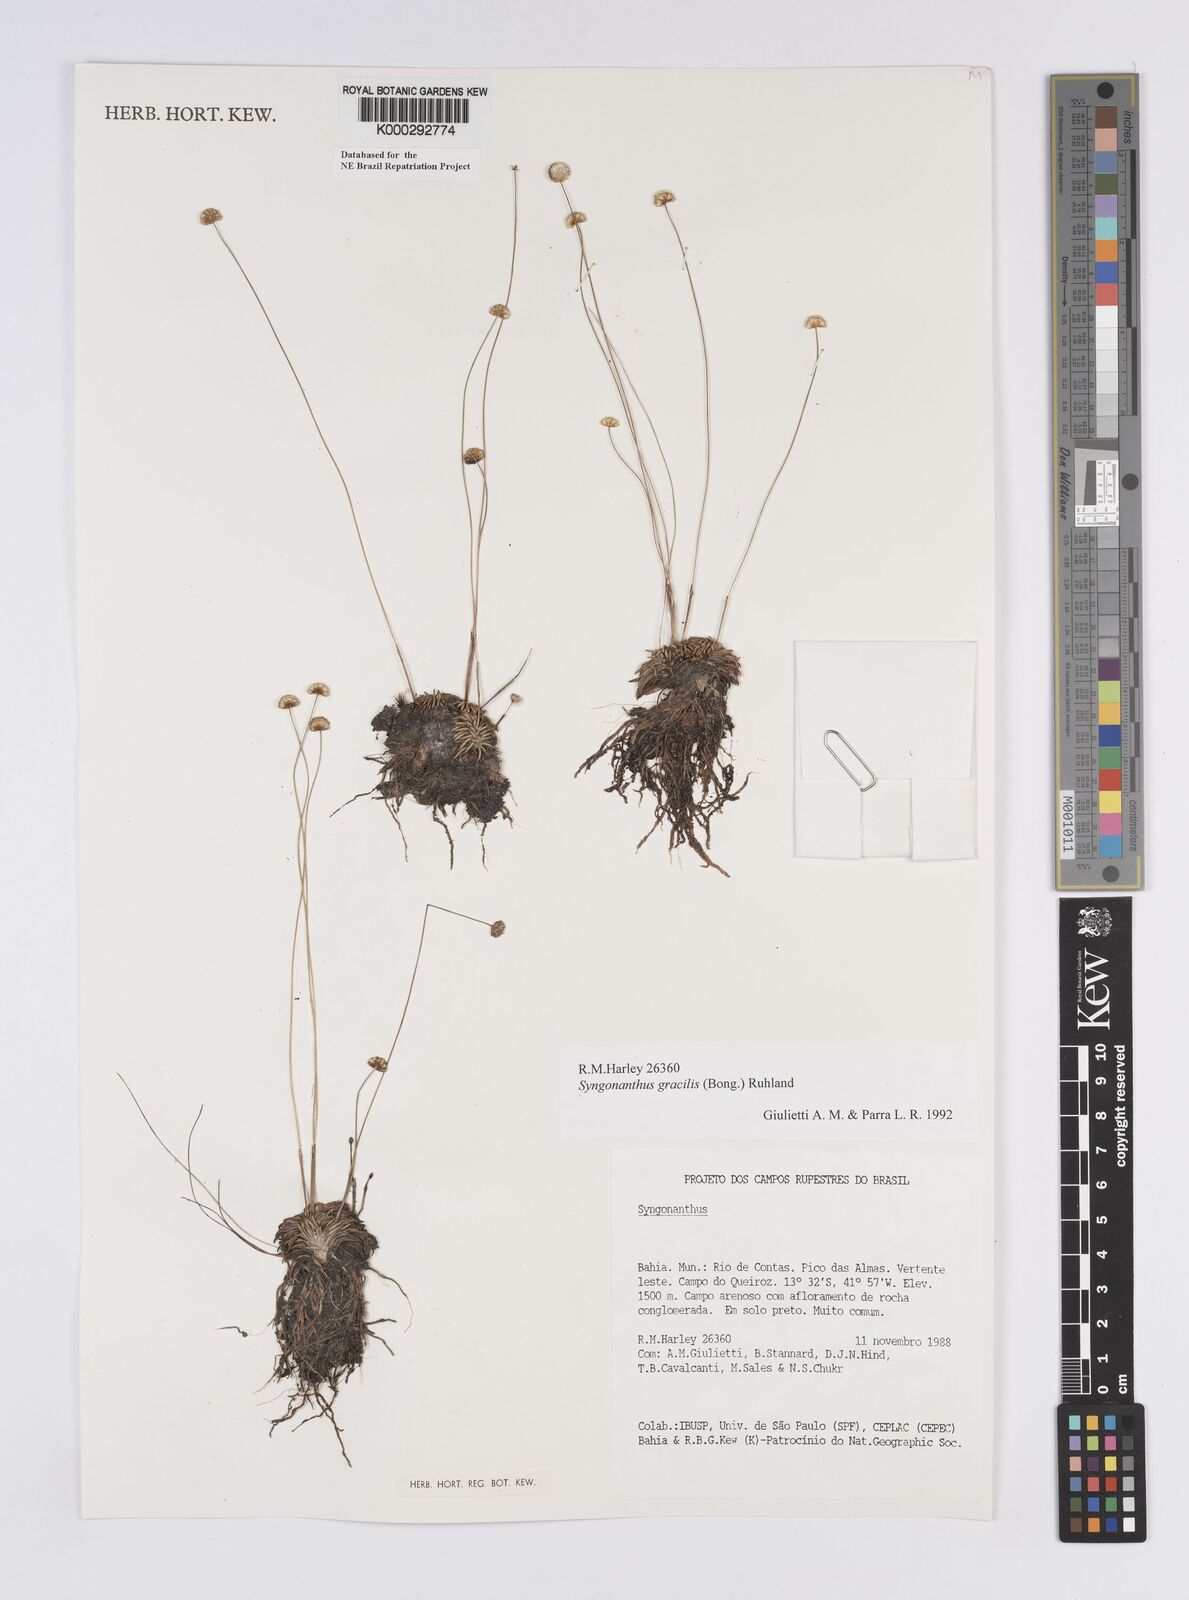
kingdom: Plantae
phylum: Tracheophyta
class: Liliopsida
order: Poales
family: Eriocaulaceae
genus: Syngonanthus
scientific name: Syngonanthus gracilis
